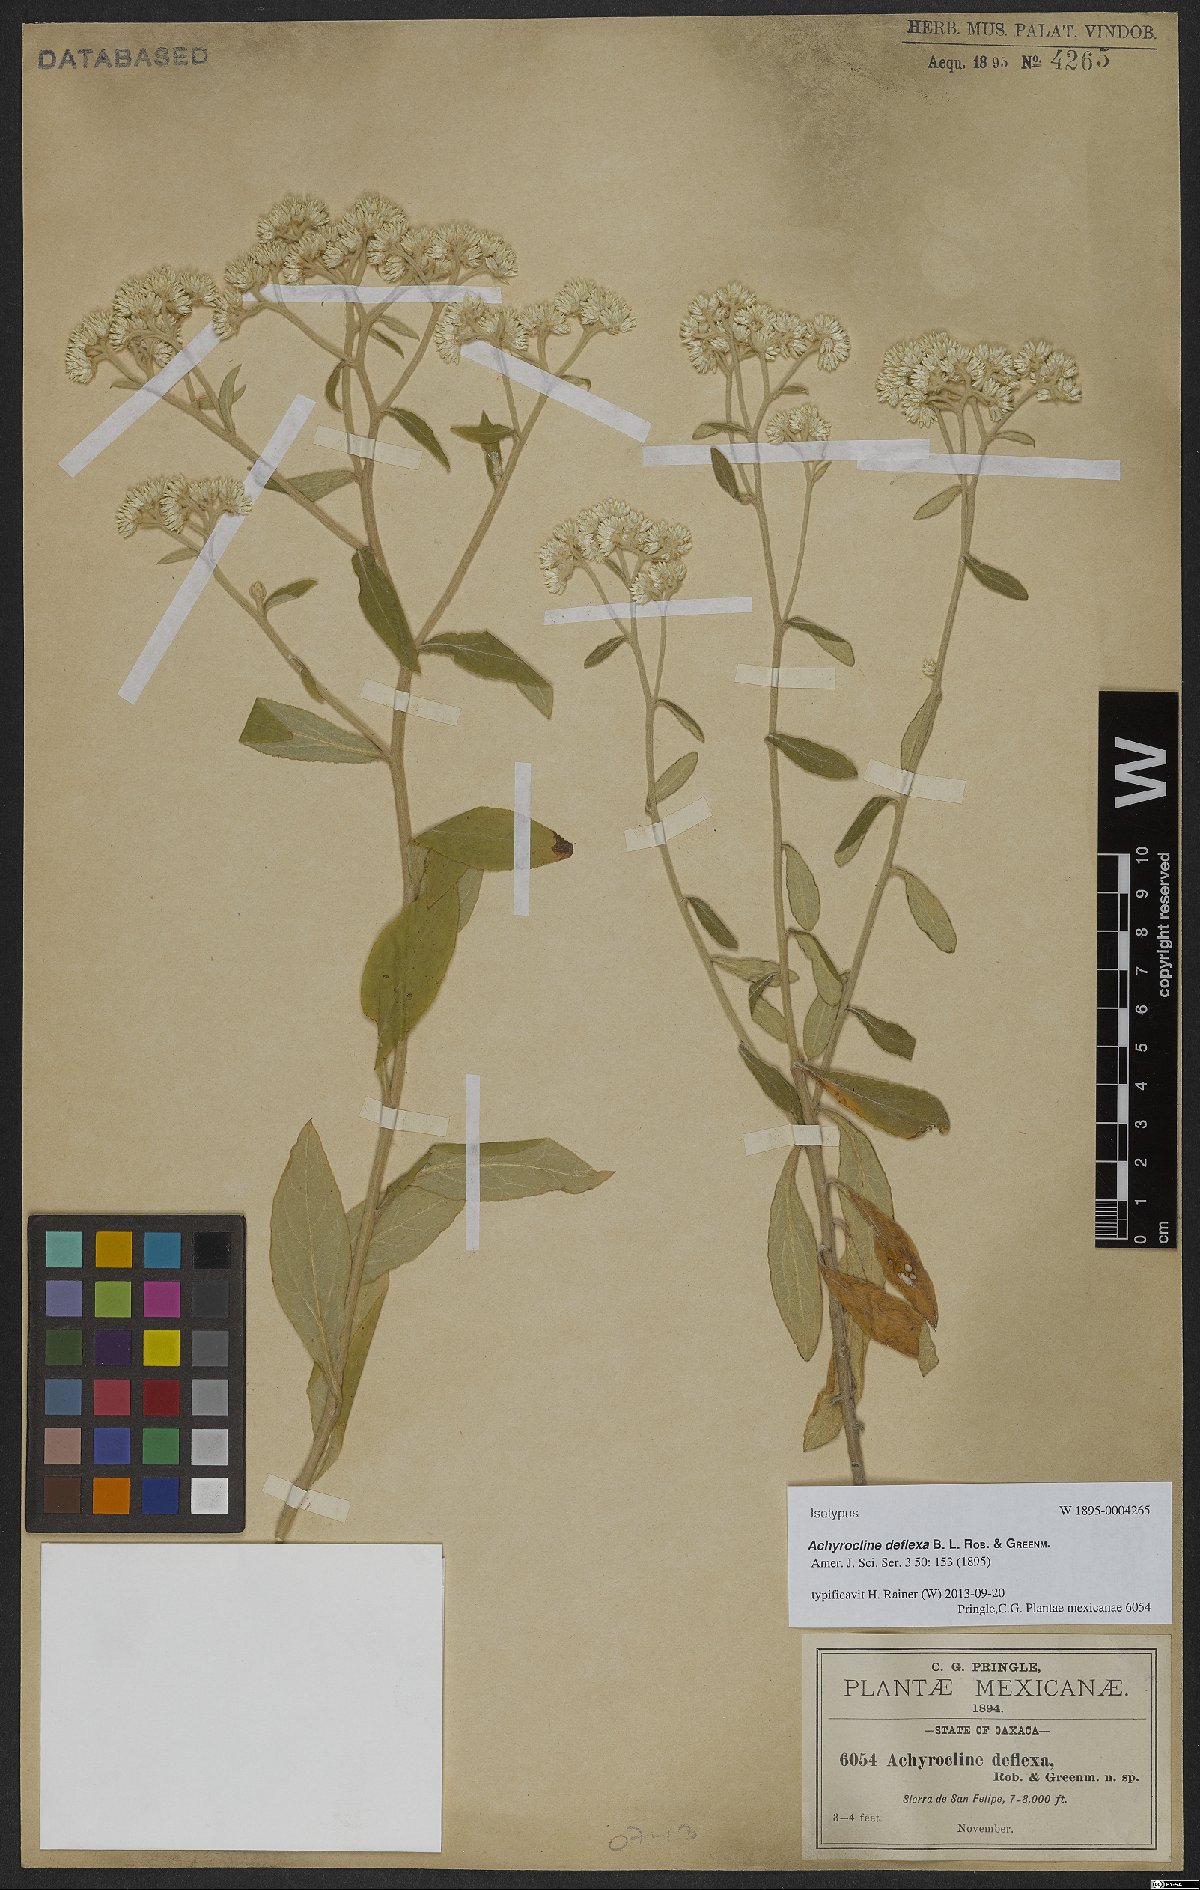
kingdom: Plantae
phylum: Tracheophyta
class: Magnoliopsida
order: Asterales
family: Asteraceae
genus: Achyrocline
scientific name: Achyrocline deflexa
